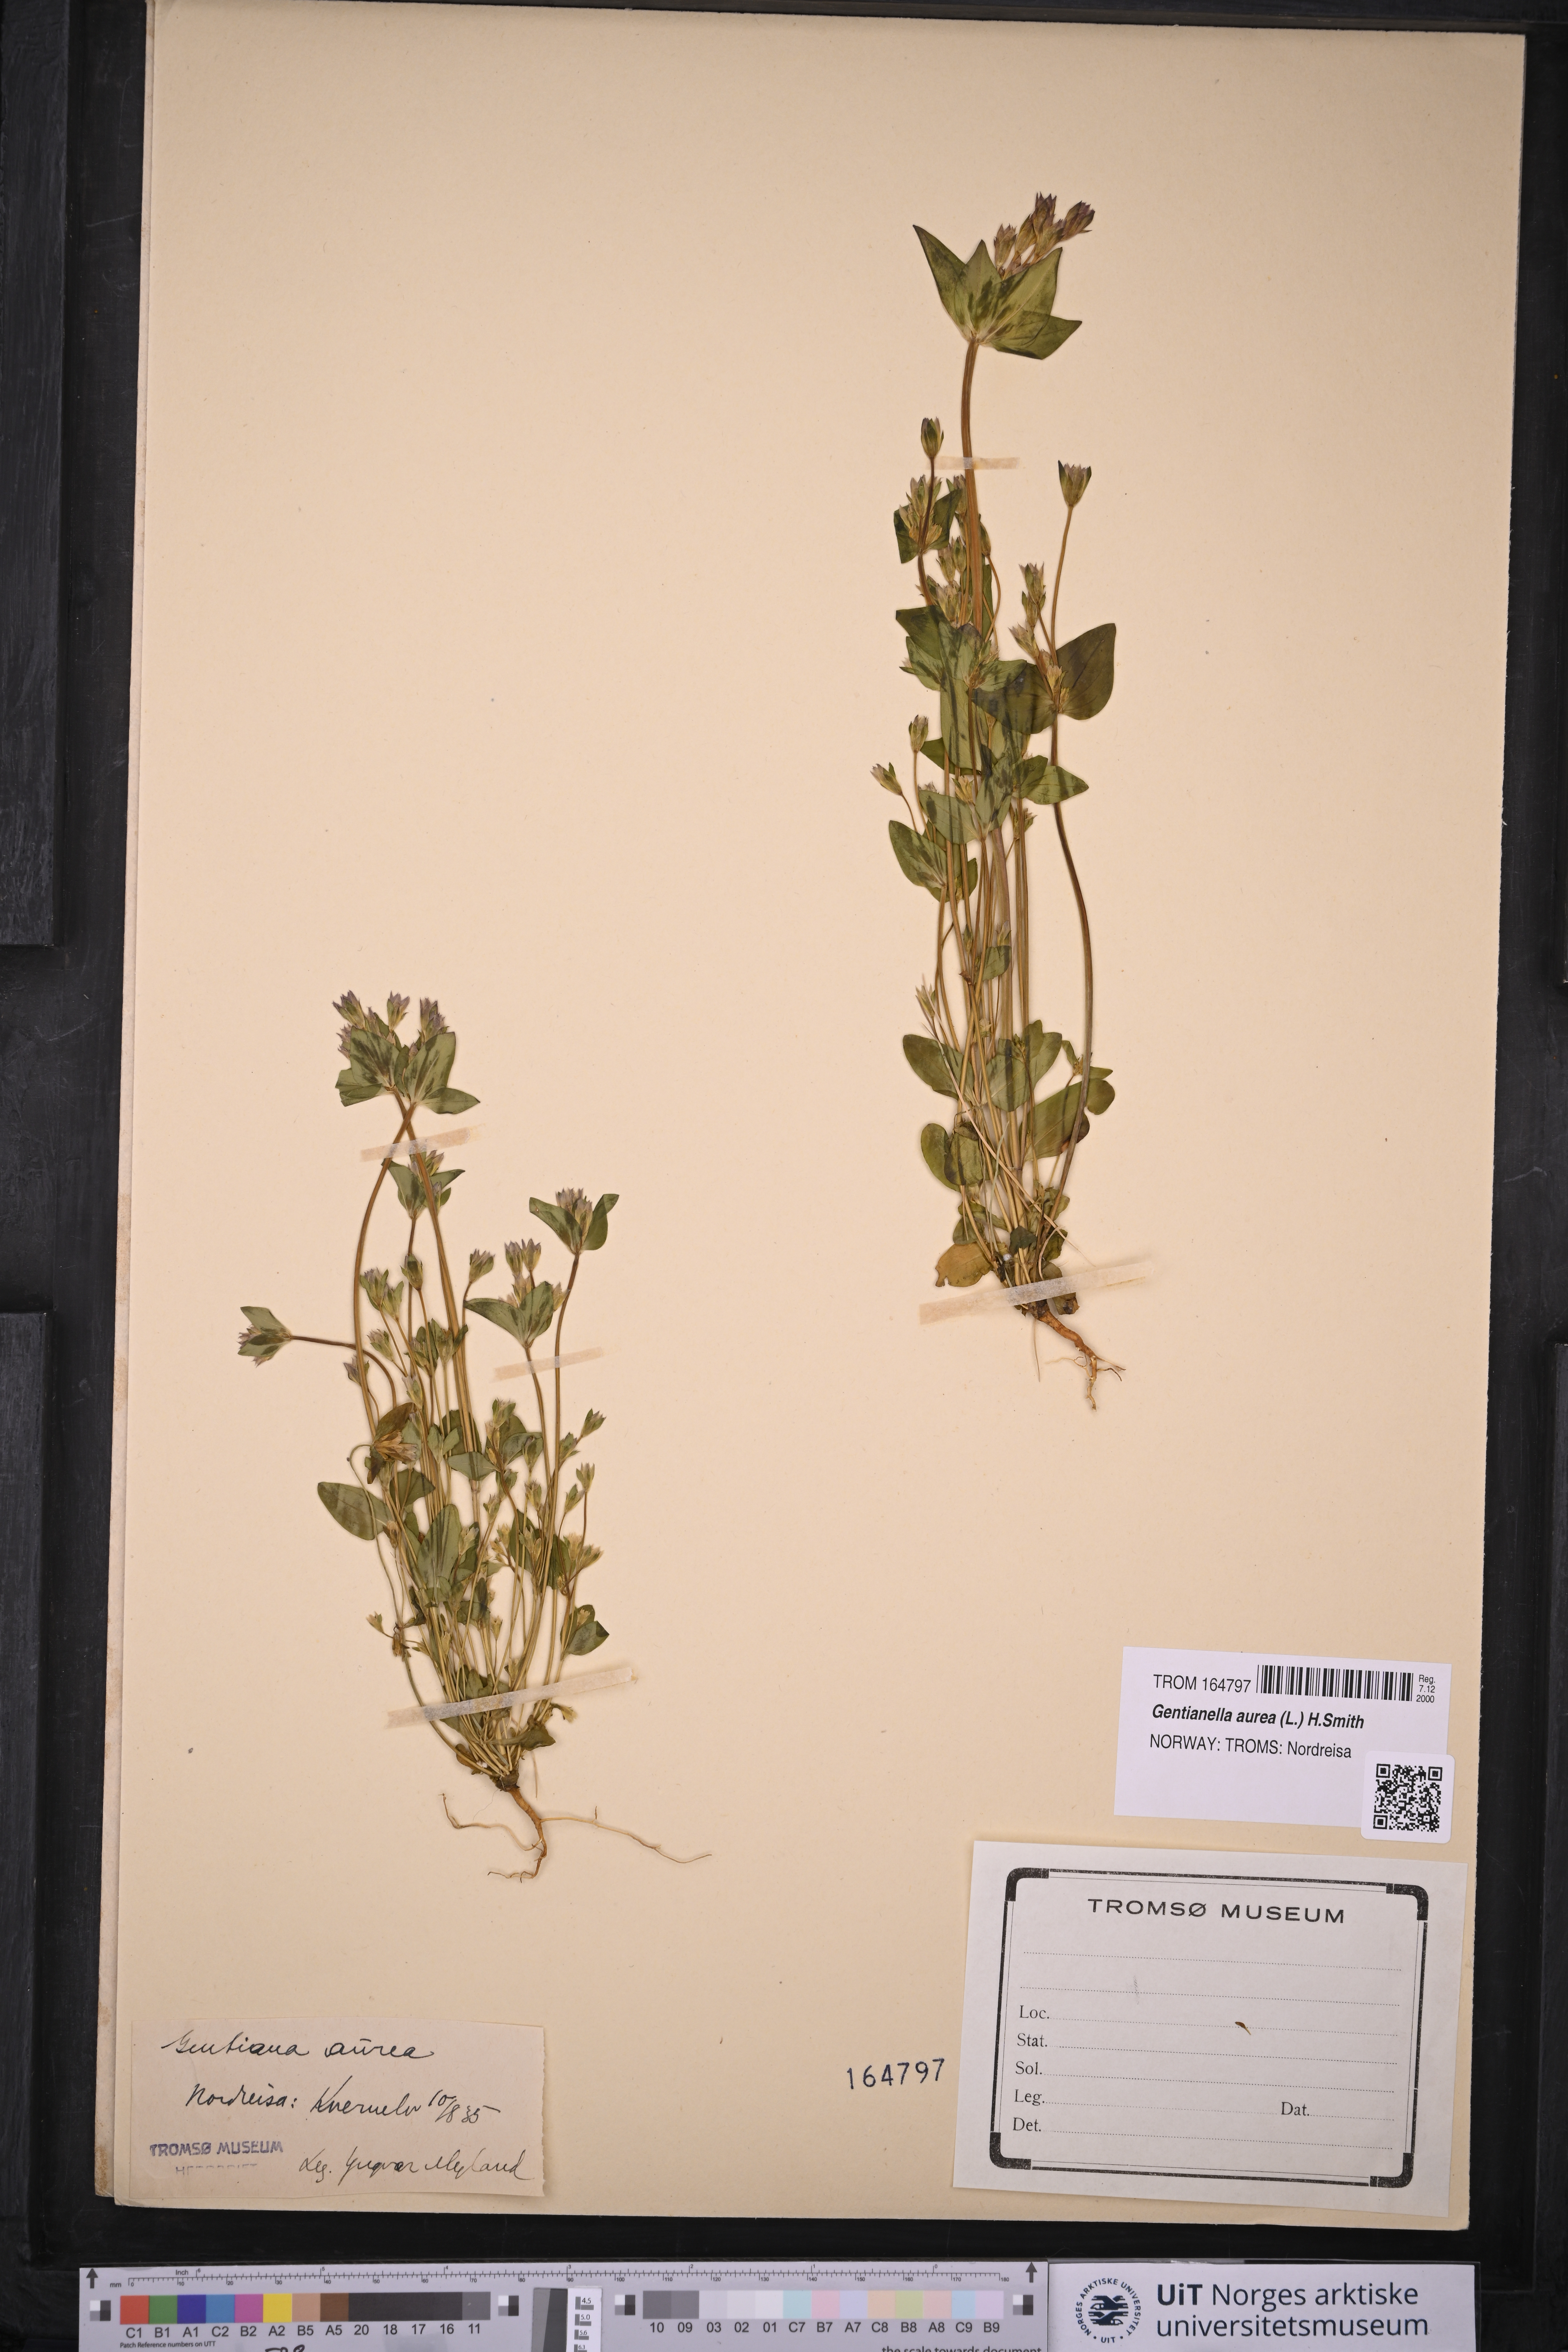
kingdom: Plantae
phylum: Tracheophyta
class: Magnoliopsida
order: Gentianales
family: Gentianaceae
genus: Gentianella
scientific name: Gentianella aurea
